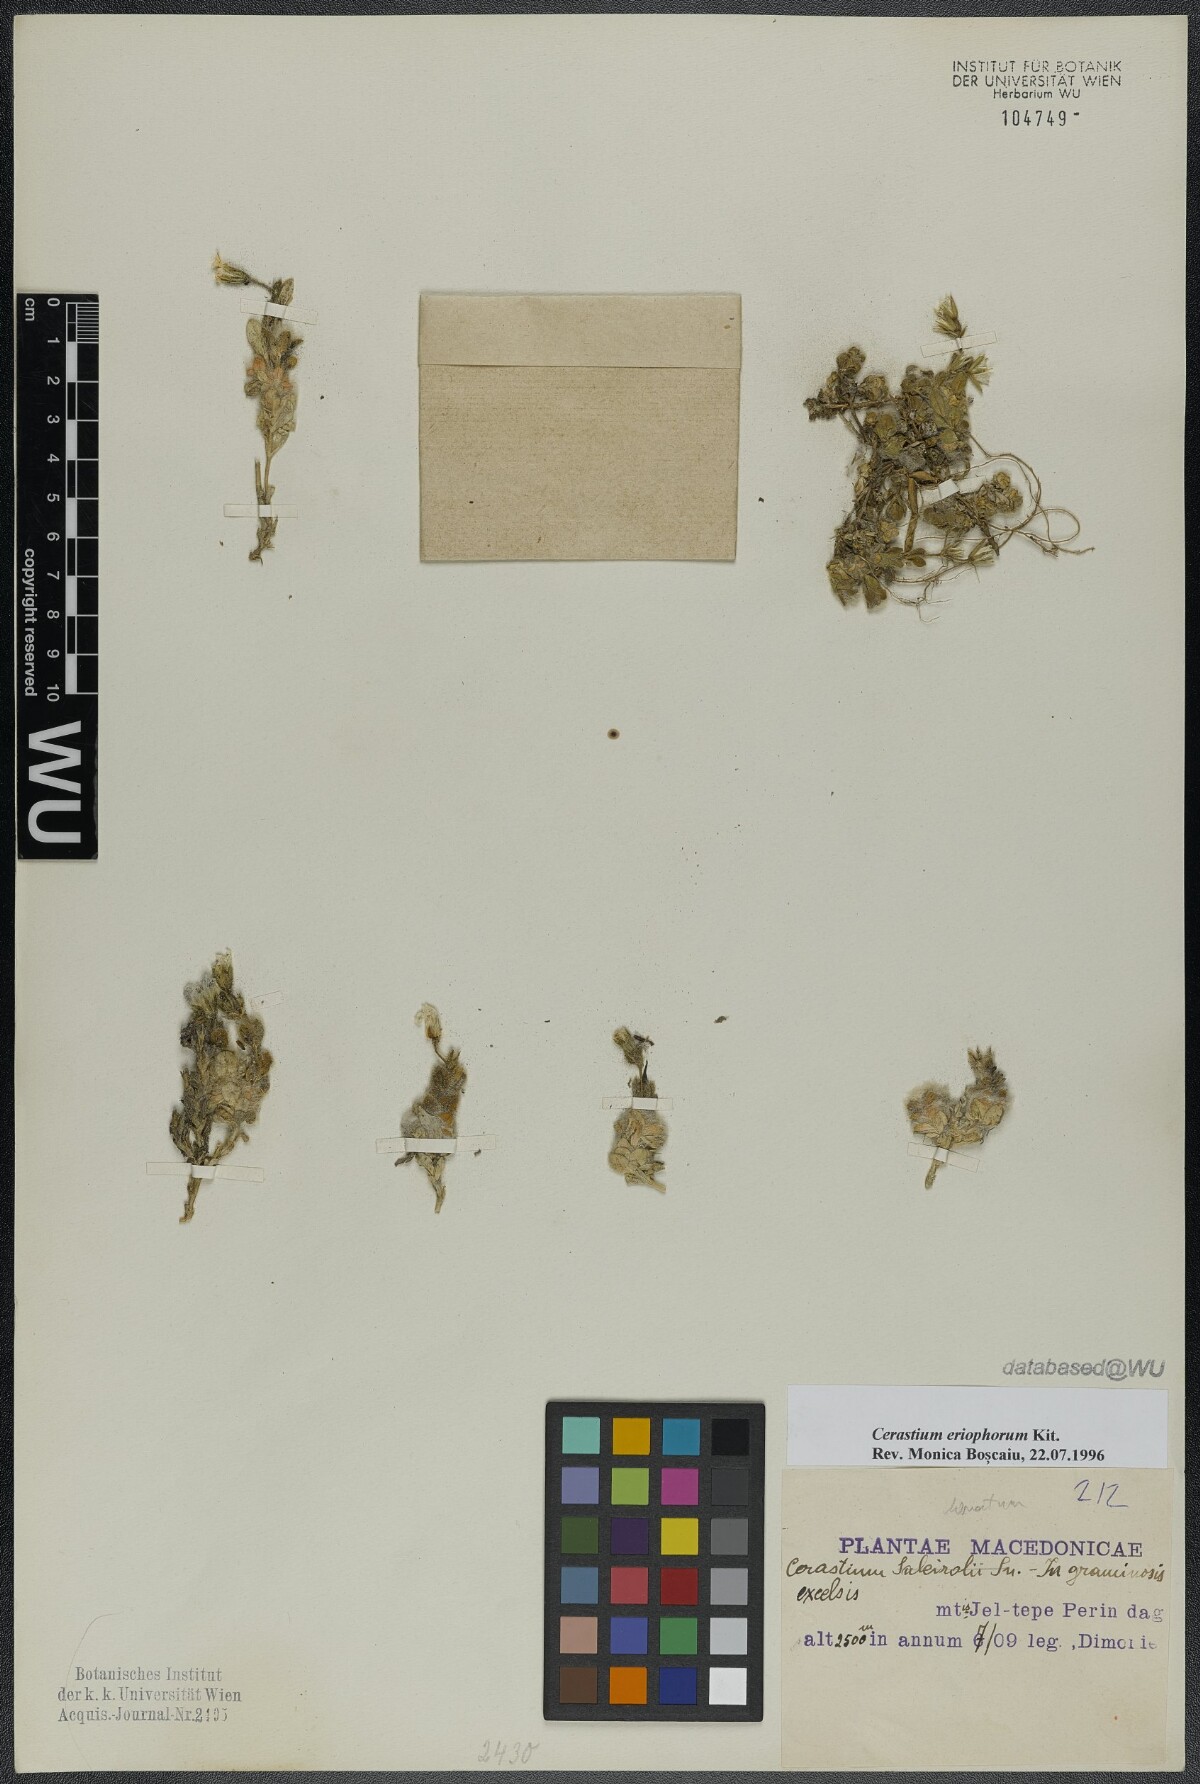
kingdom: Plantae
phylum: Tracheophyta
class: Magnoliopsida
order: Caryophyllales
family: Caryophyllaceae
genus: Cerastium
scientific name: Cerastium eriophorum
